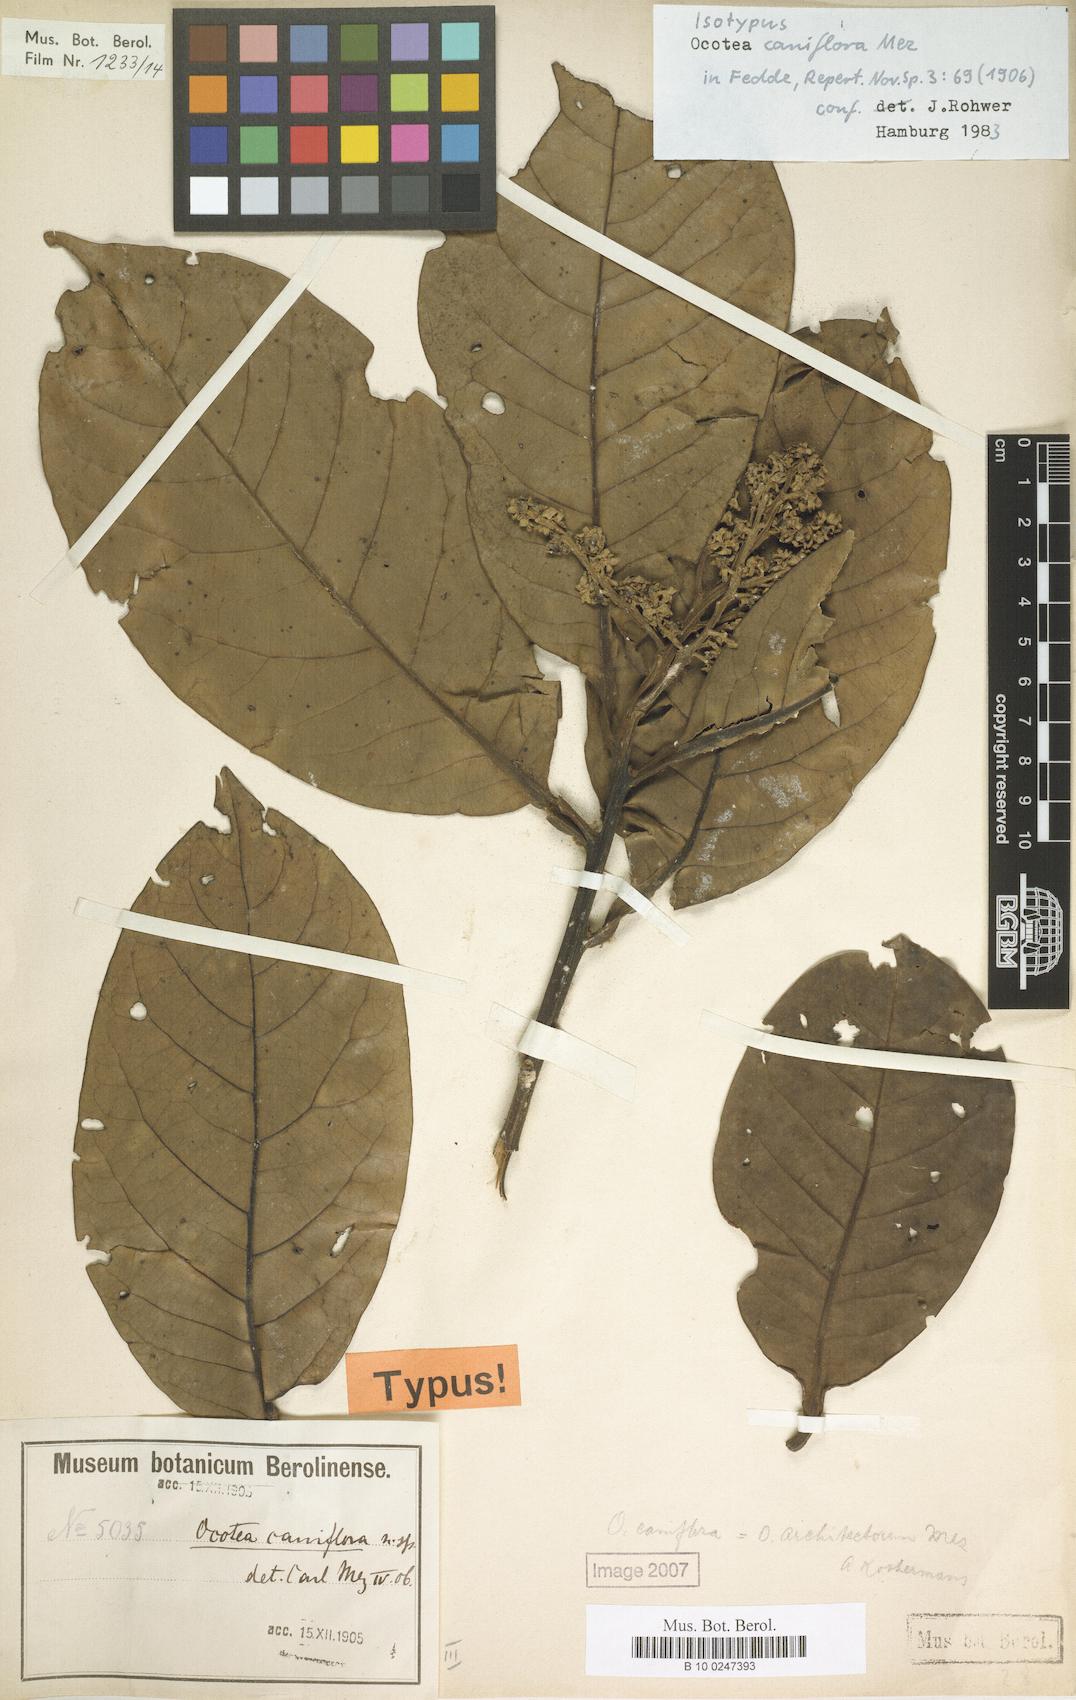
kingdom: Plantae
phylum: Tracheophyta
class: Magnoliopsida
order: Laurales
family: Lauraceae
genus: Ocotea
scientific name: Ocotea floribunda
